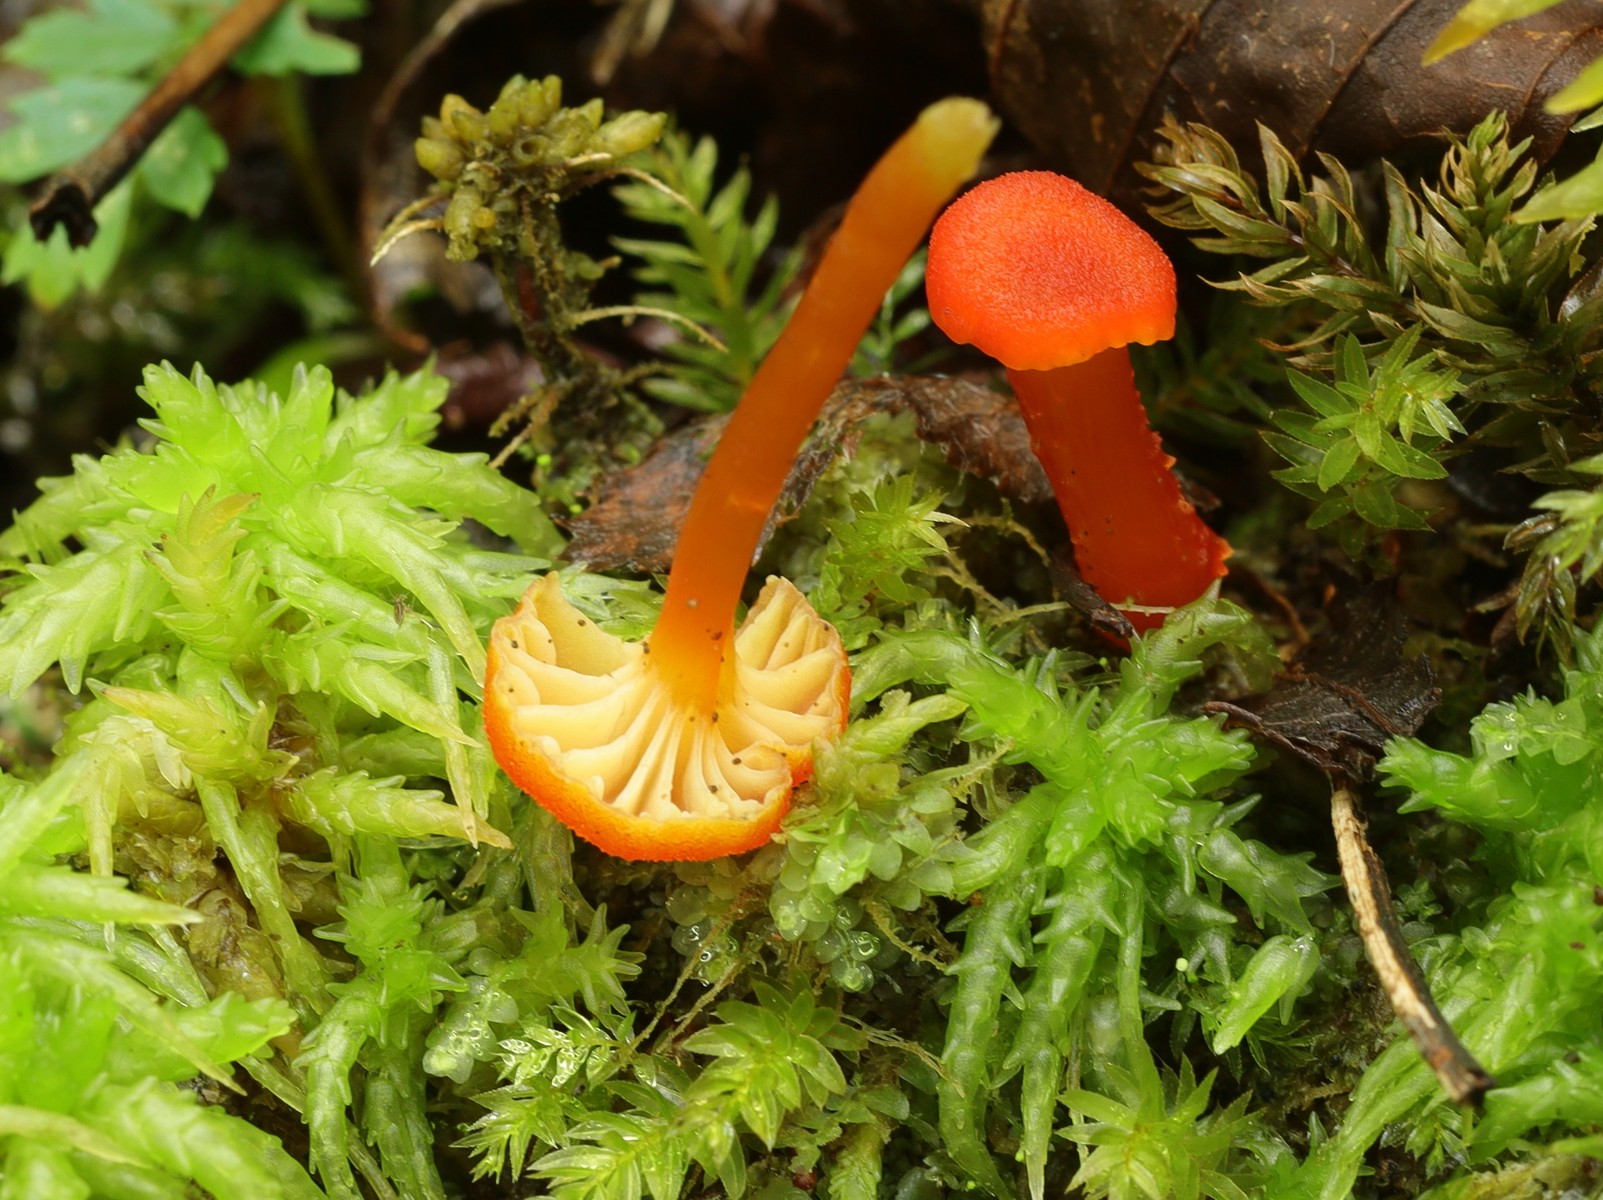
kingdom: Fungi
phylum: Basidiomycota
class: Agaricomycetes
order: Agaricales
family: Hygrophoraceae
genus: Hygrocybe
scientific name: Hygrocybe cantharellus
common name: kantarel-vokshat
